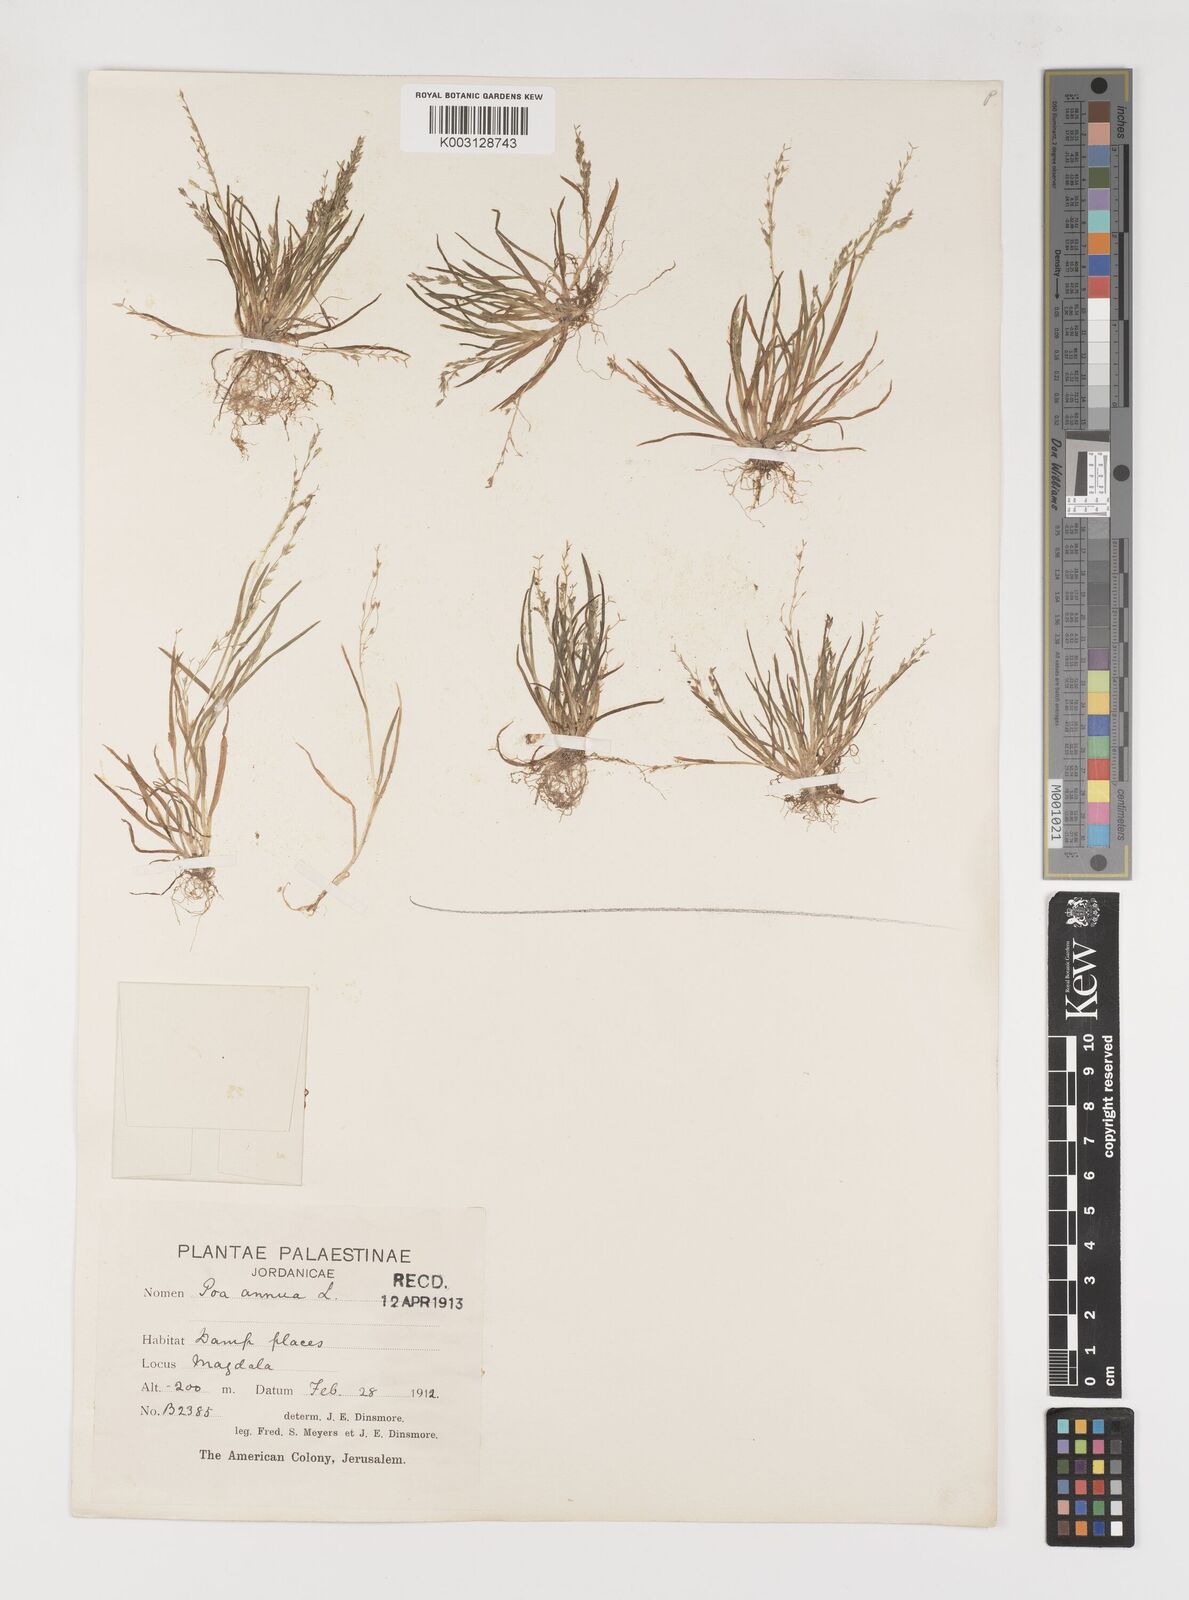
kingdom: Plantae
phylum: Tracheophyta
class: Liliopsida
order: Poales
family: Poaceae
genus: Poa
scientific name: Poa infirma
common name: Weak bluegrass
